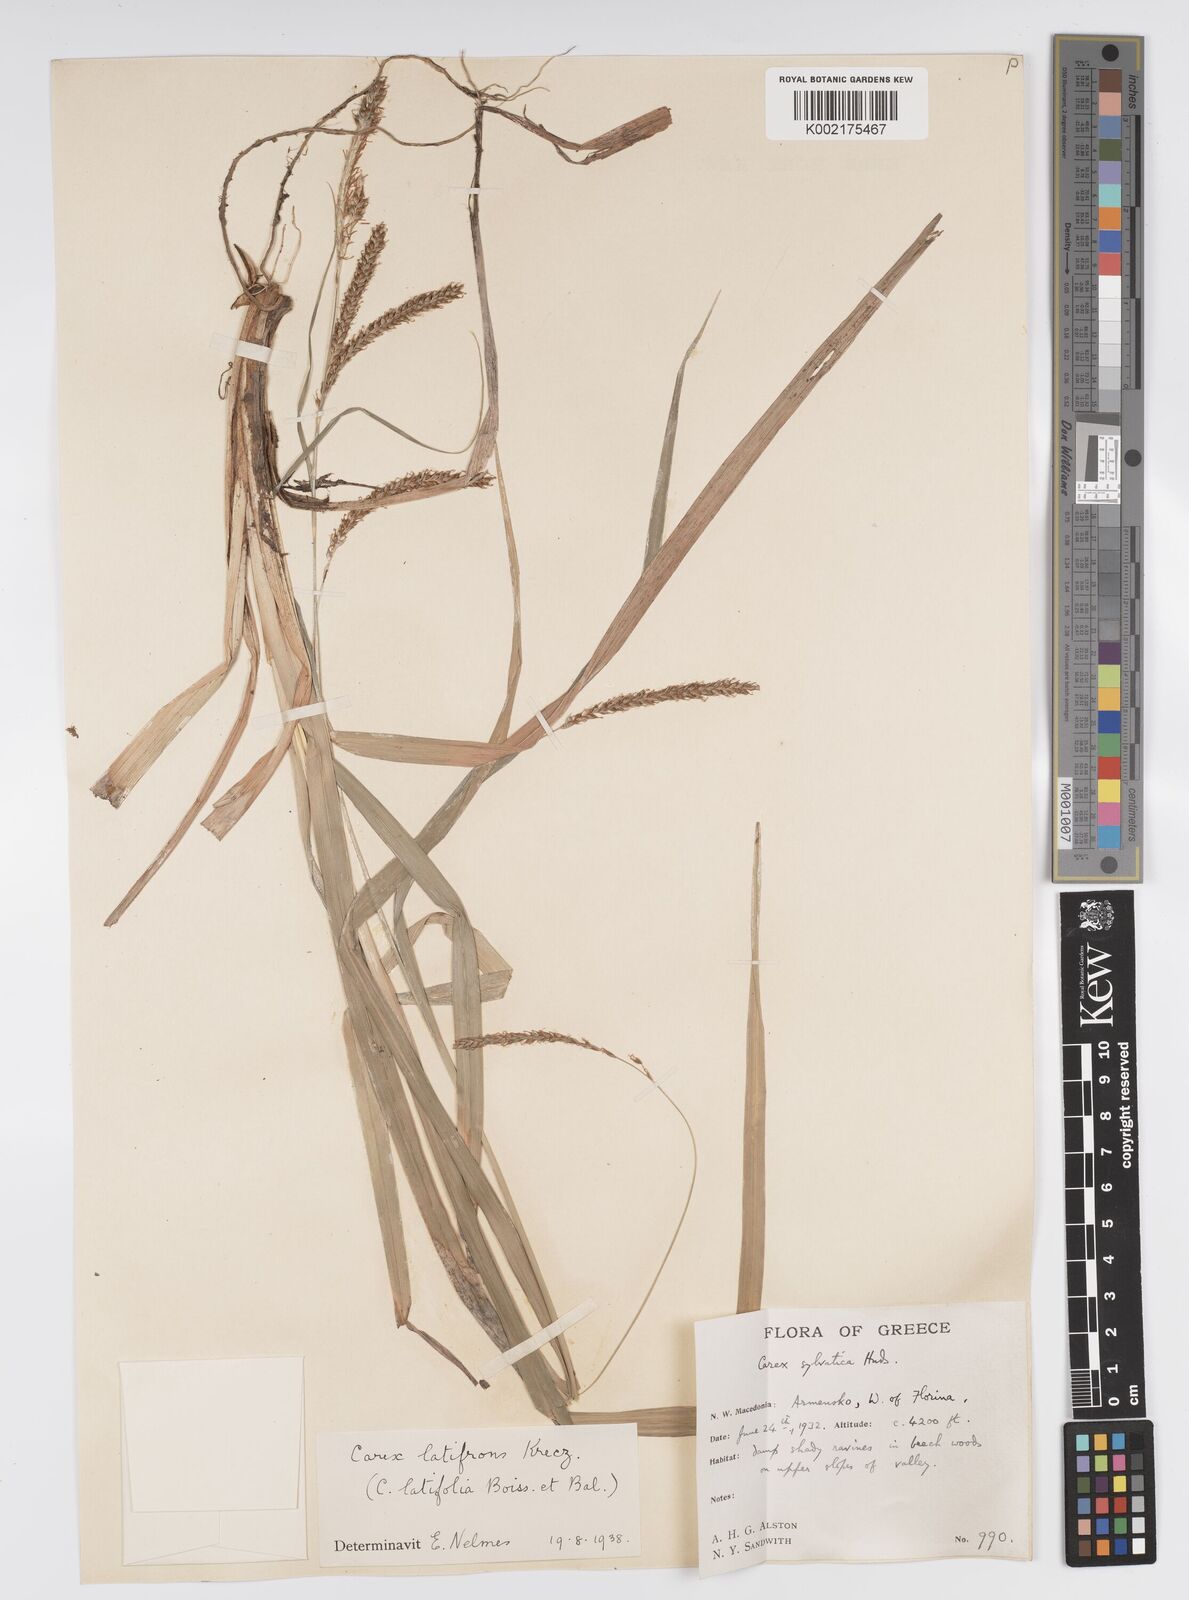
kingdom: Plantae
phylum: Tracheophyta
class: Liliopsida
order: Poales
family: Cyperaceae
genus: Carex
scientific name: Carex sylvatica
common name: Wood-sedge
